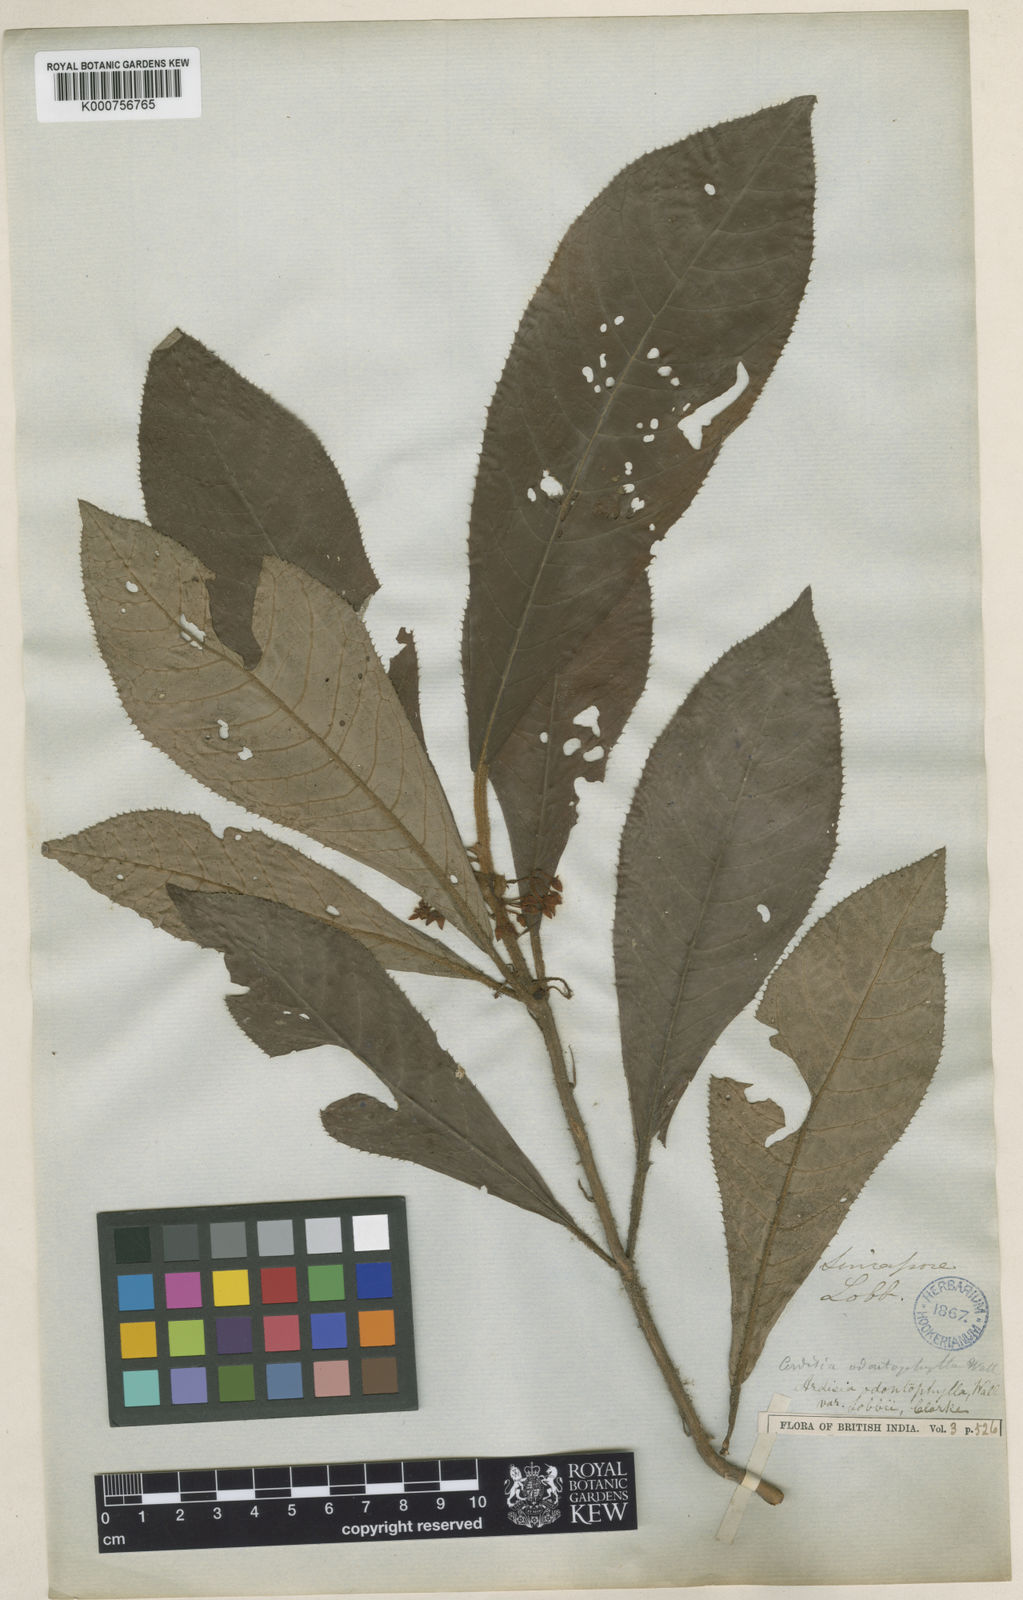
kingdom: Plantae
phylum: Tracheophyta
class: Magnoliopsida
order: Ericales
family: Primulaceae
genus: Ardisia
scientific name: Ardisia demissa
